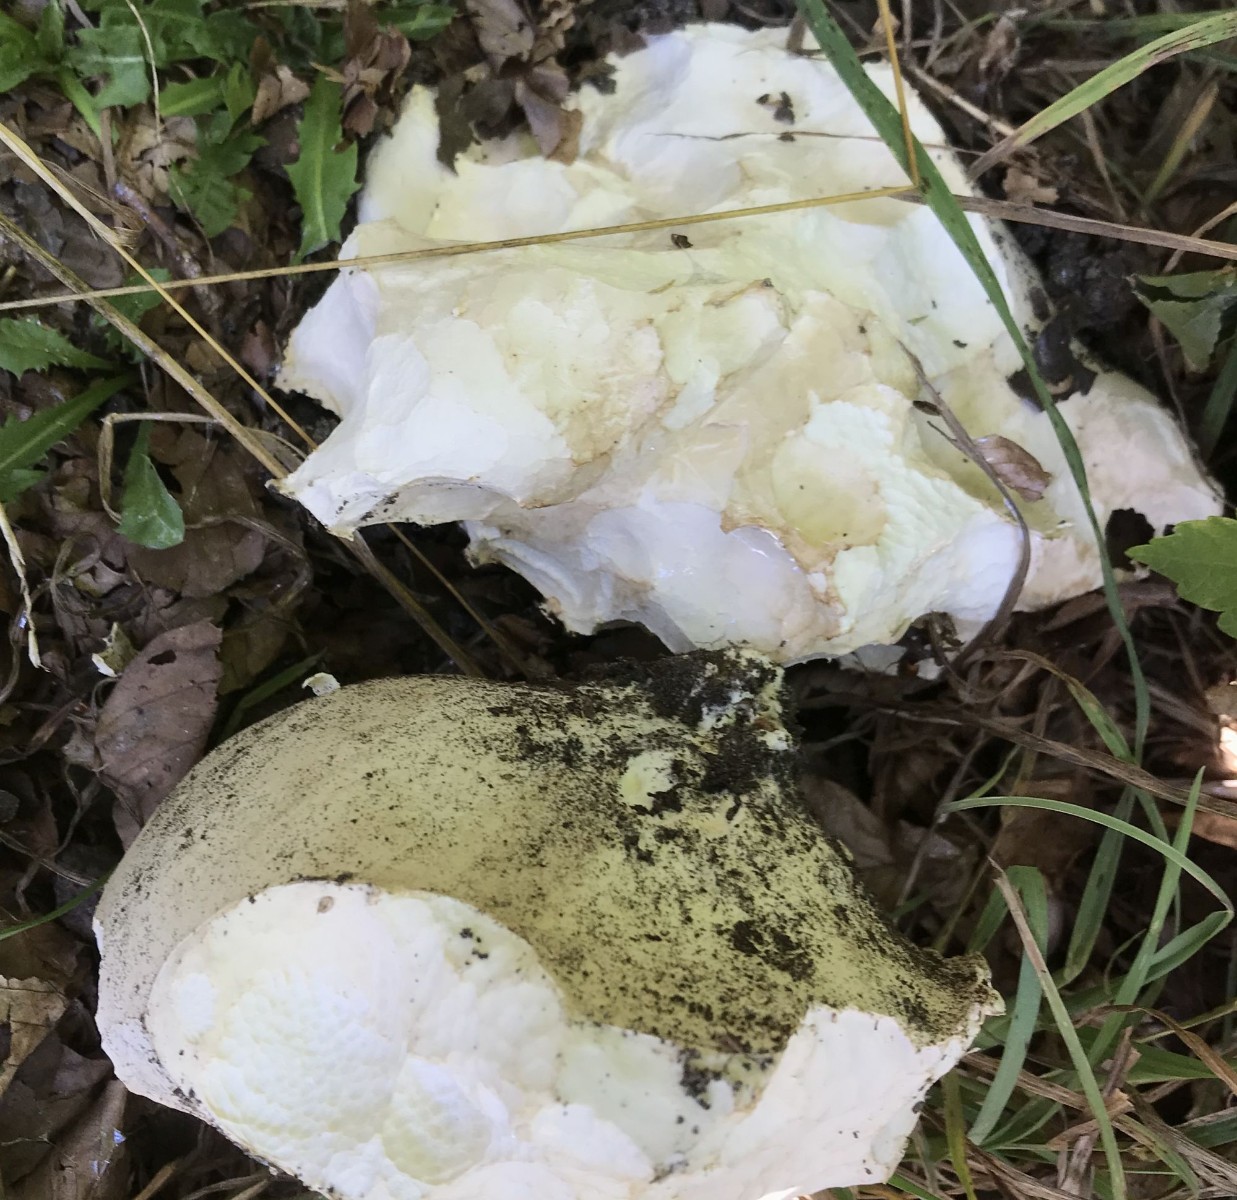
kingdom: Fungi
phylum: Basidiomycota
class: Agaricomycetes
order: Agaricales
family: Lycoperdaceae
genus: Calvatia
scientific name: Calvatia gigantea
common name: kæmpestøvbold
